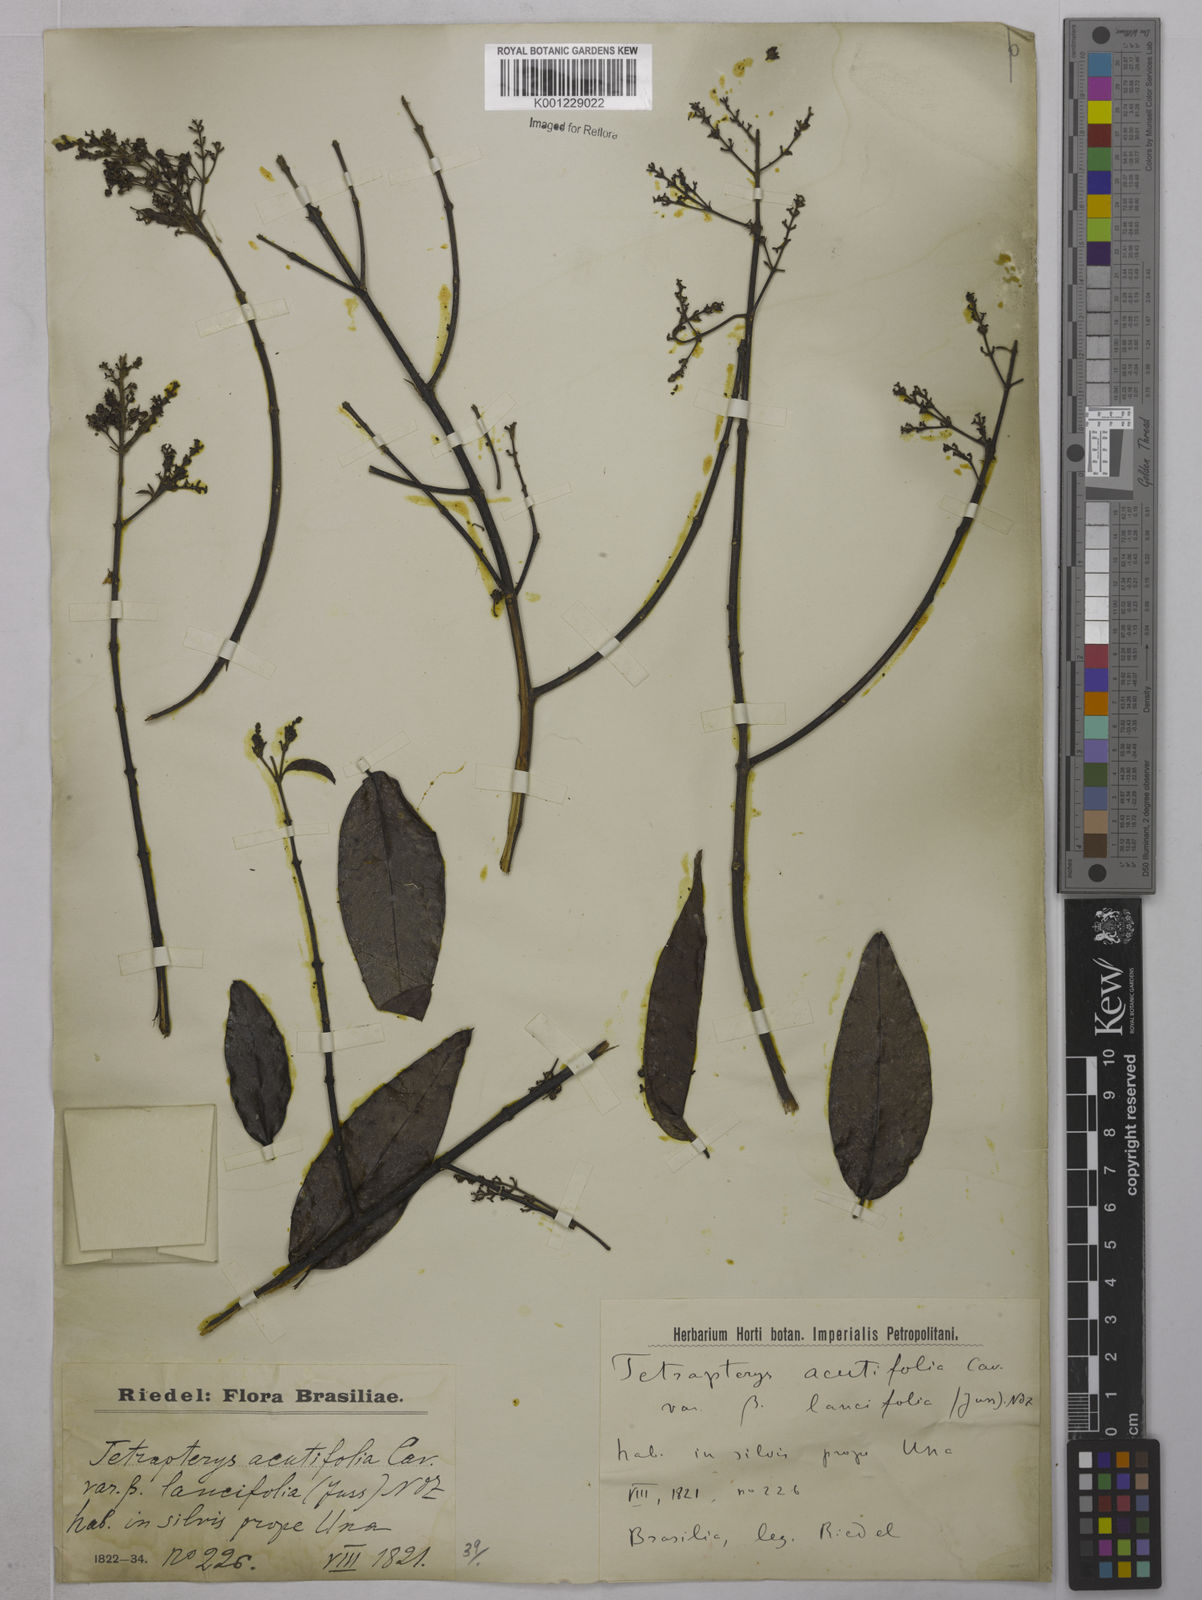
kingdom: Plantae
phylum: Tracheophyta
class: Magnoliopsida
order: Malpighiales
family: Malpighiaceae
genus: Niedenzuella
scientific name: Niedenzuella acutifolia
